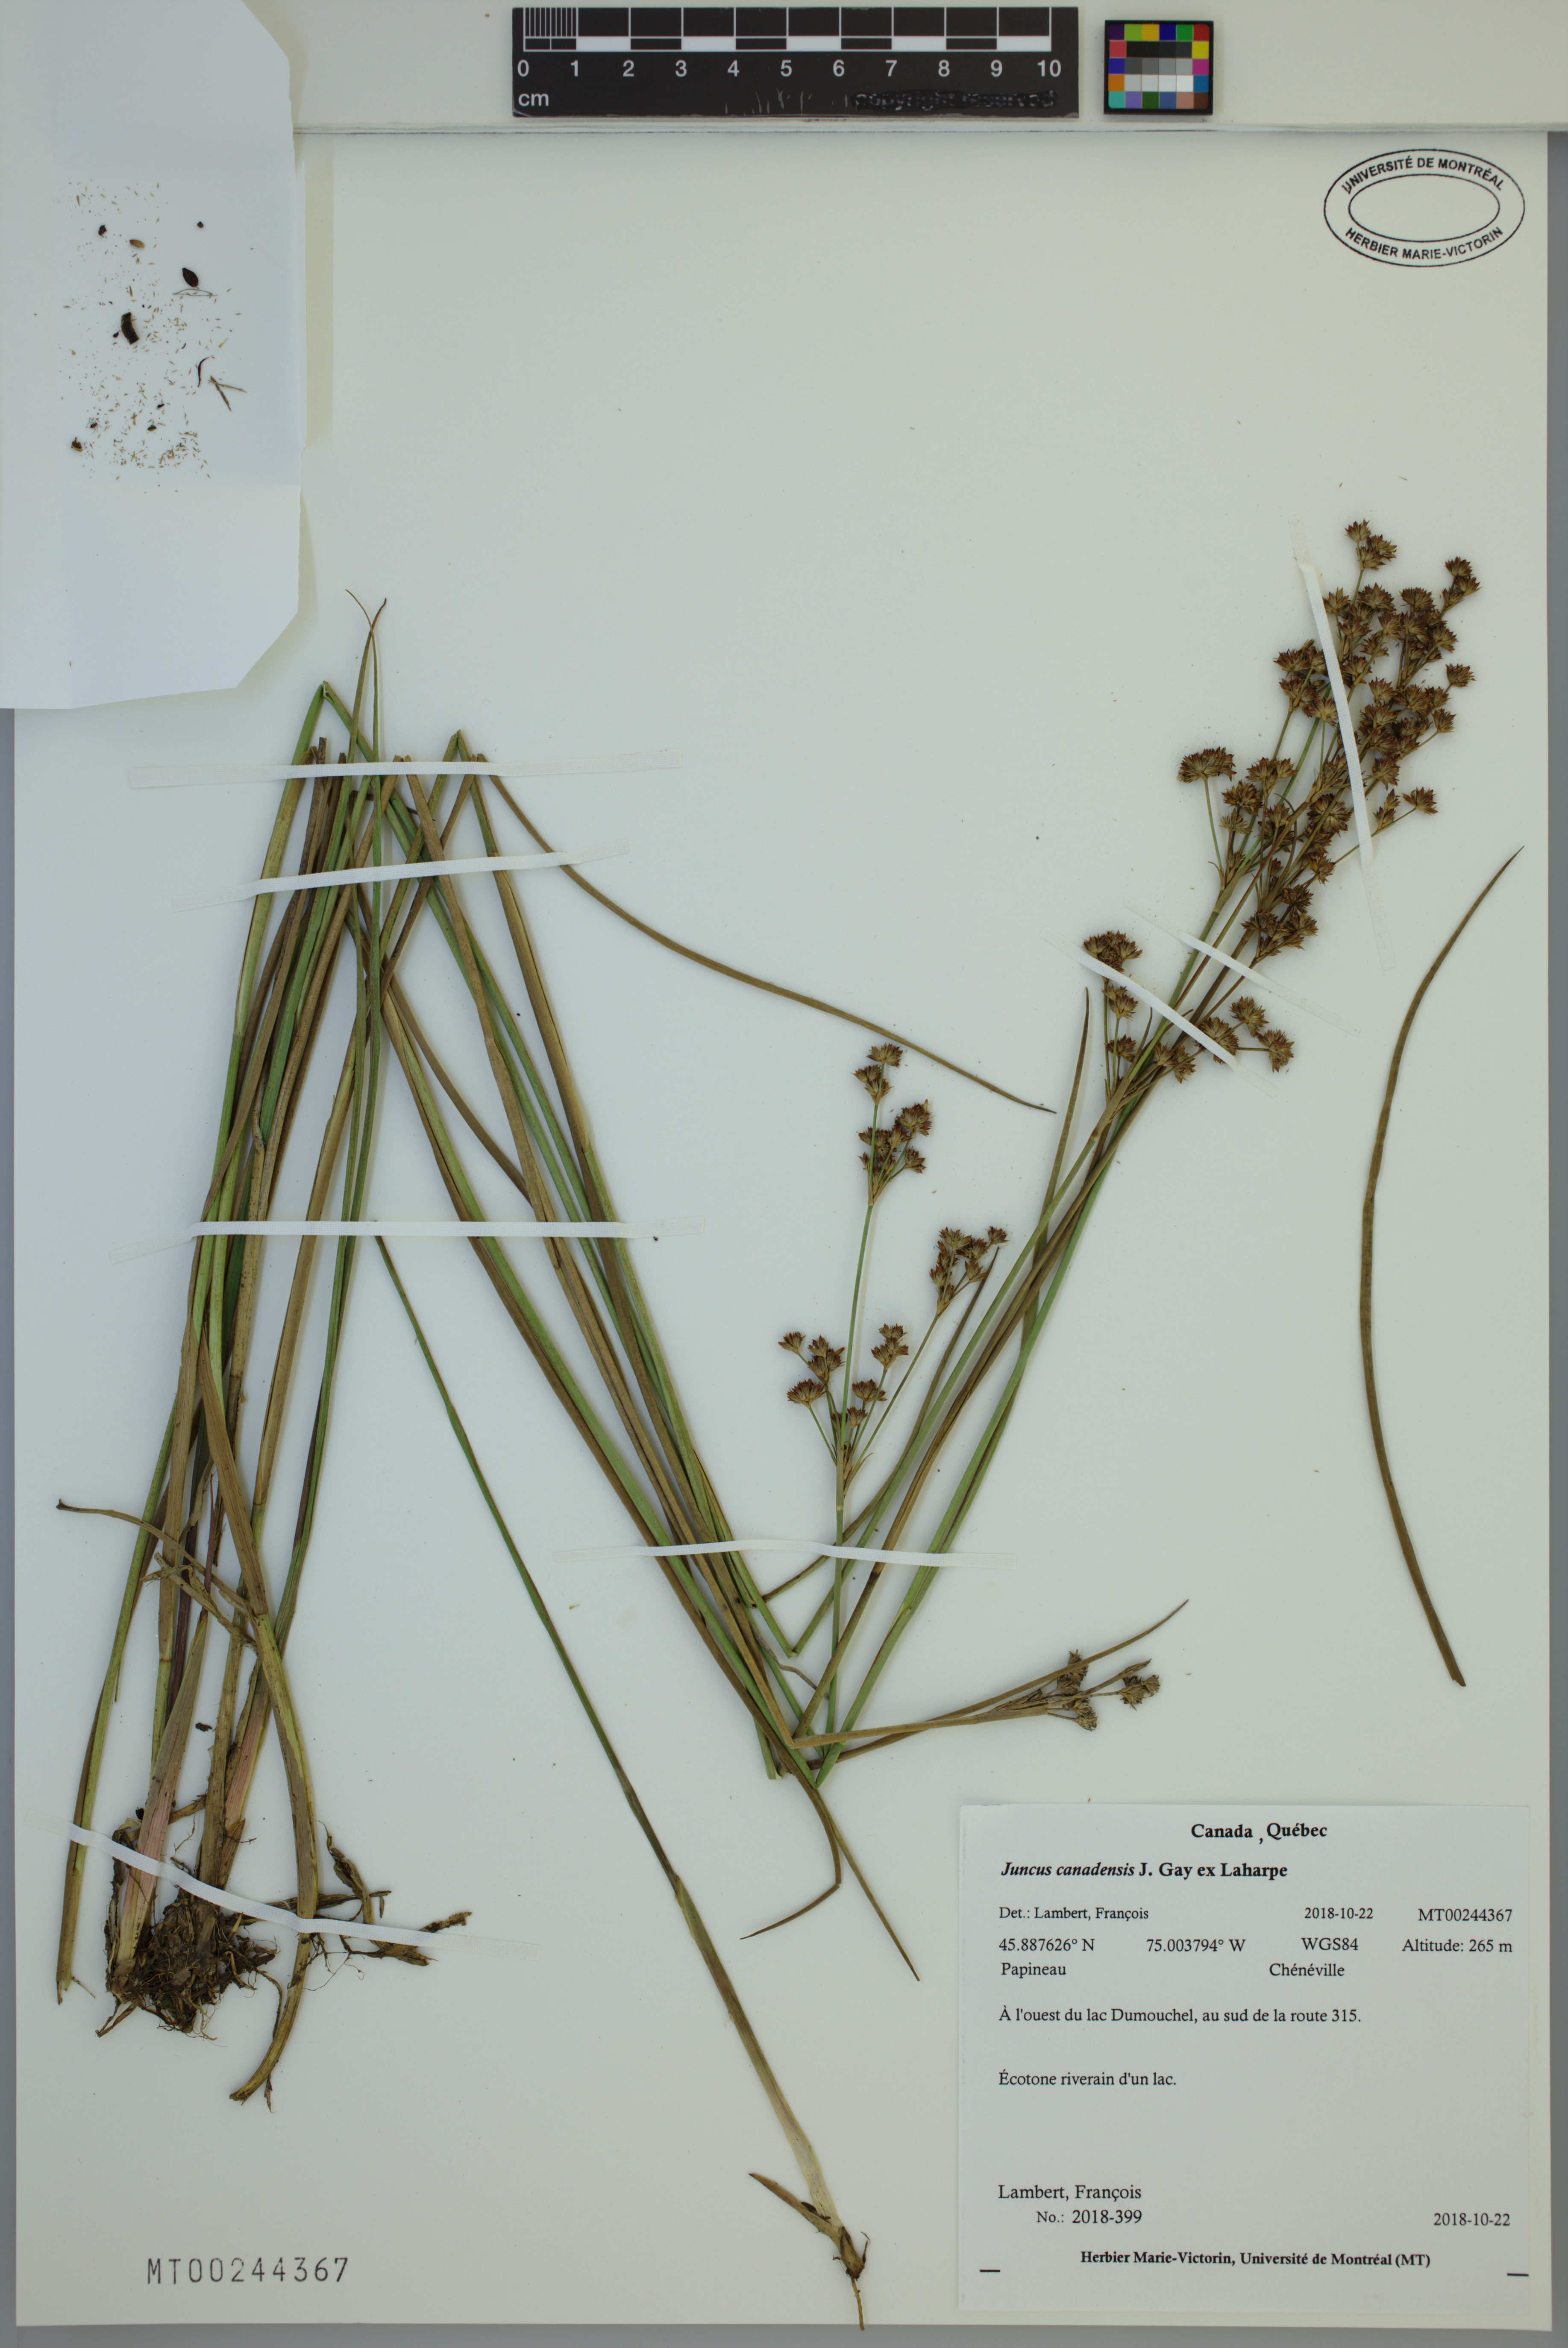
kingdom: Plantae
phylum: Tracheophyta
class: Liliopsida
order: Poales
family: Juncaceae
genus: Juncus
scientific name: Juncus canadensis
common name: Canada rush
